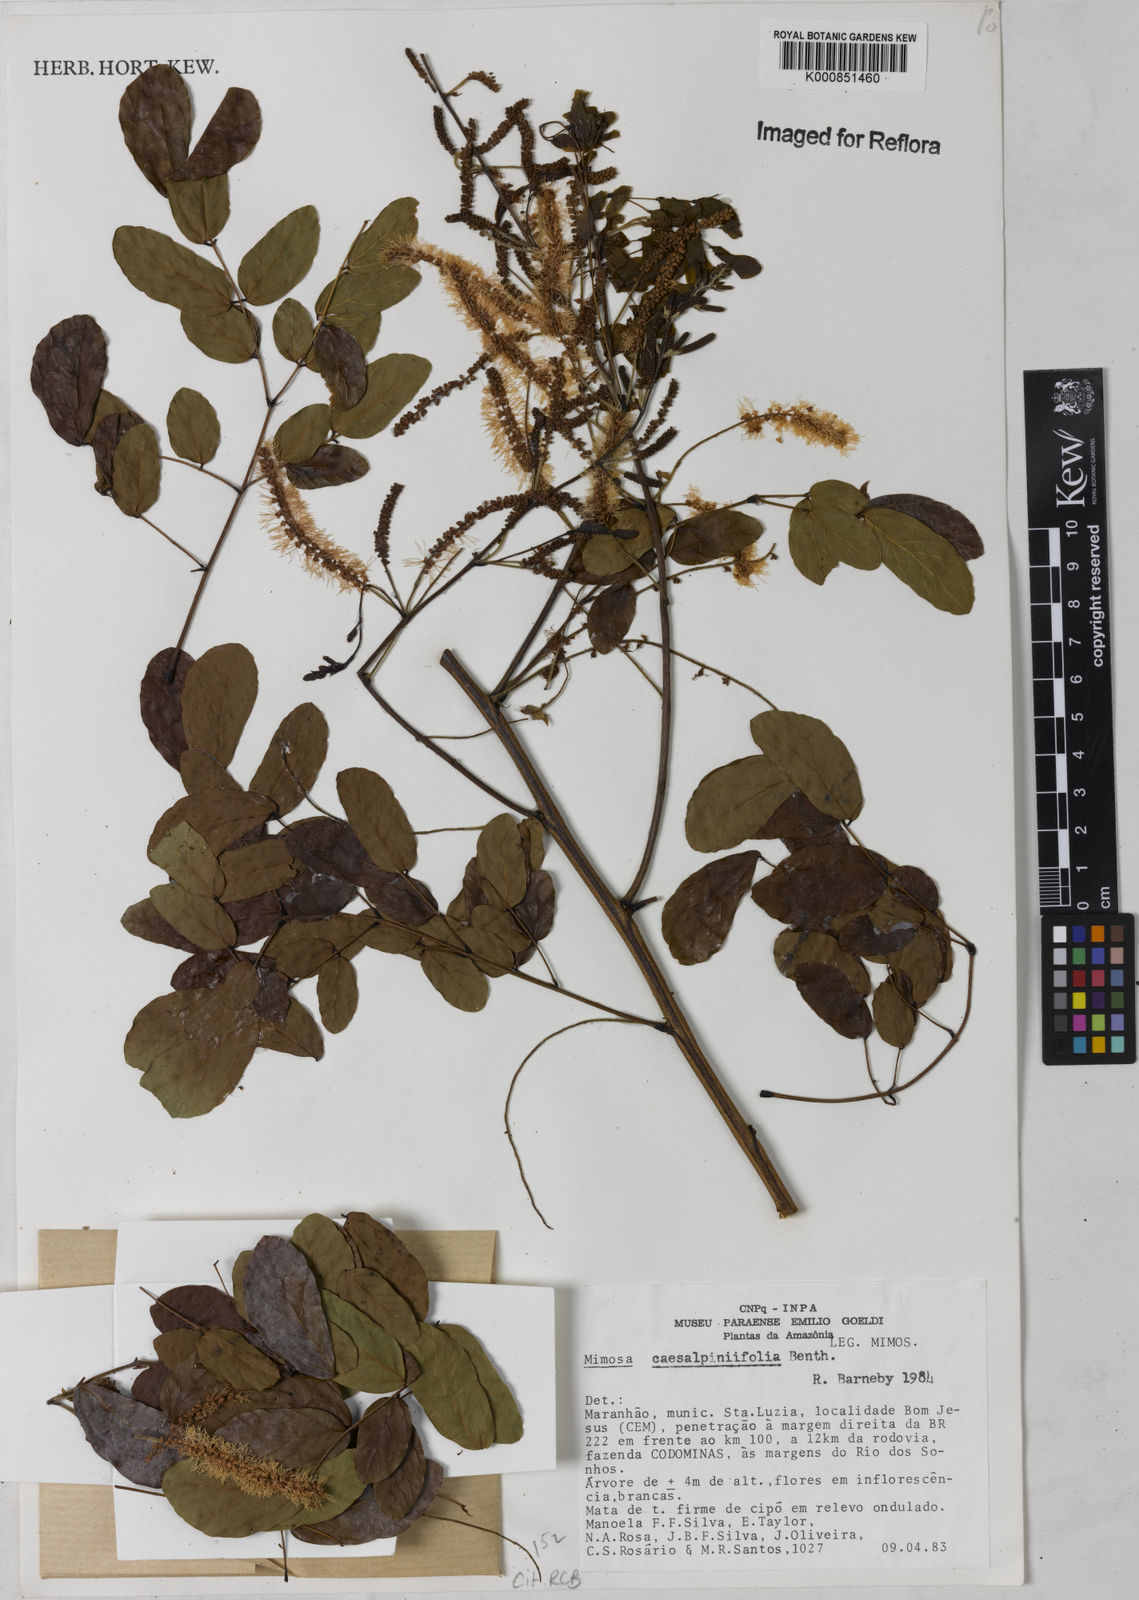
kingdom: Plantae
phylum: Tracheophyta
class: Magnoliopsida
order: Fabales
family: Fabaceae
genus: Mimosa
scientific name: Mimosa caesalpiniifolia
